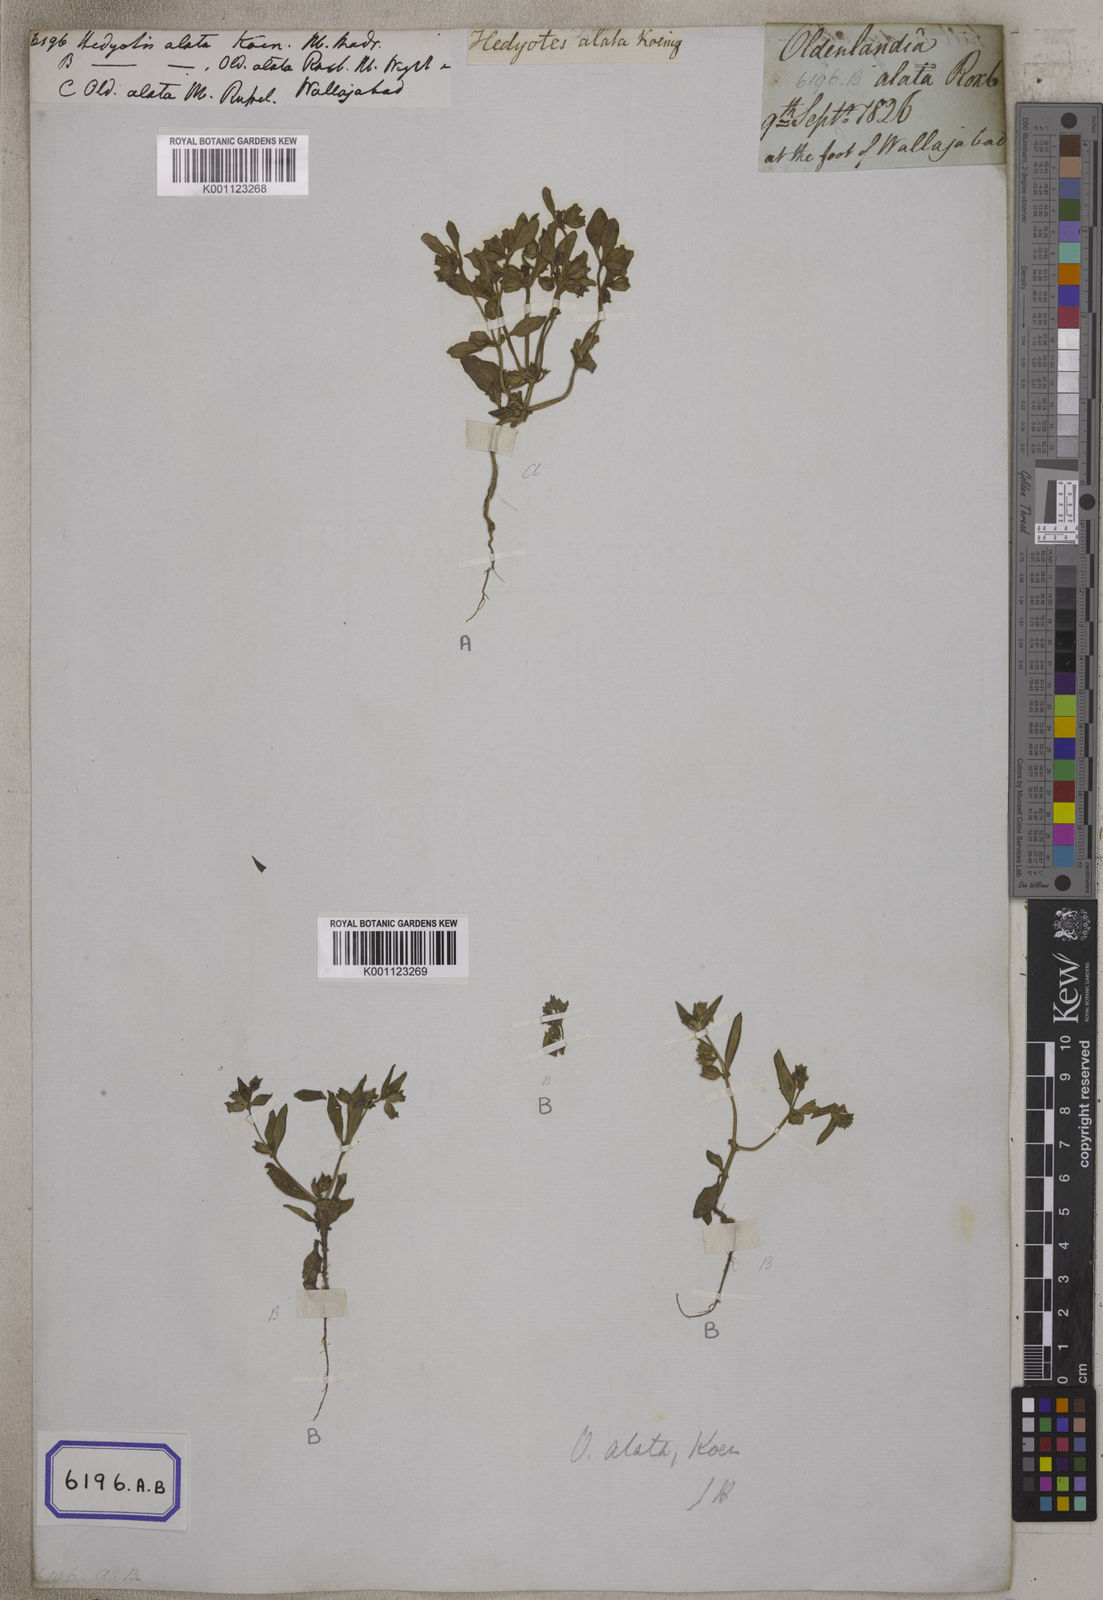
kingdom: Plantae
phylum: Tracheophyta
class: Magnoliopsida
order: Gentianales
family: Rubiaceae
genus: Hedyotis
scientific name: Hedyotis
